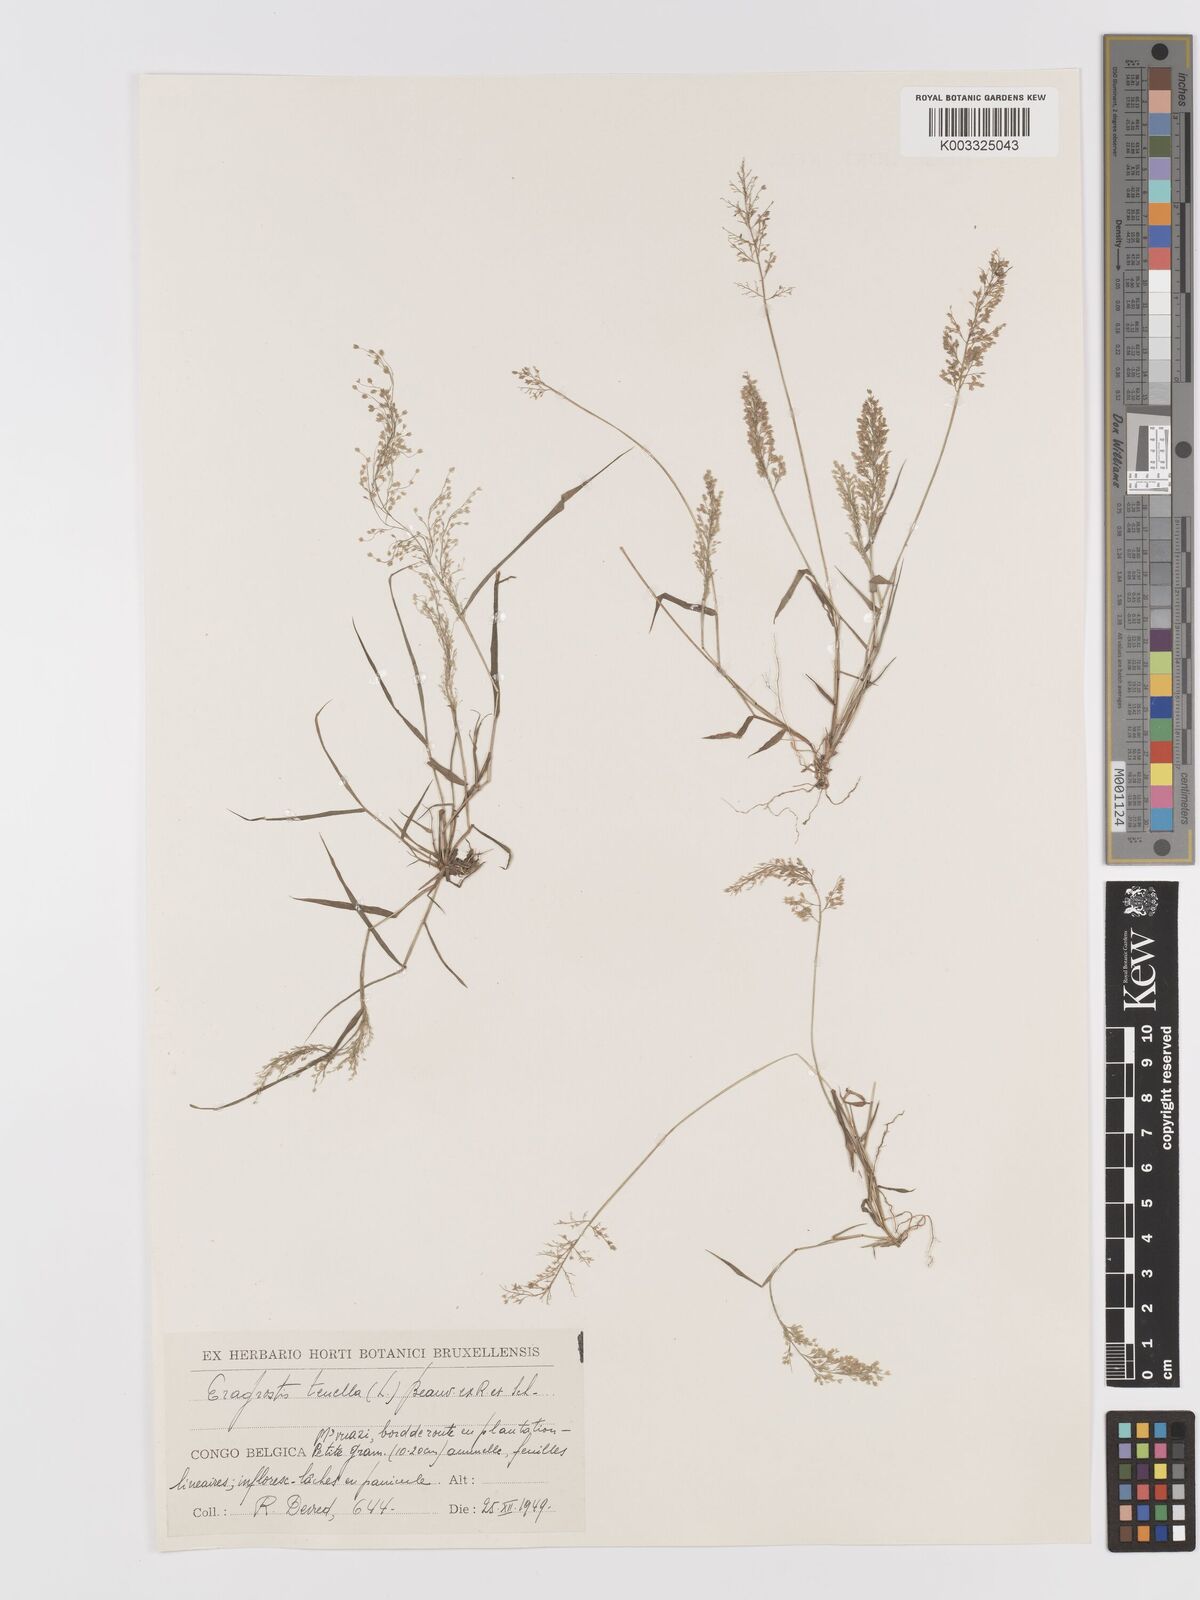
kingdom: Plantae
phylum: Tracheophyta
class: Liliopsida
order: Poales
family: Poaceae
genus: Eragrostis
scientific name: Eragrostis tenella
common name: Japanese lovegrass
